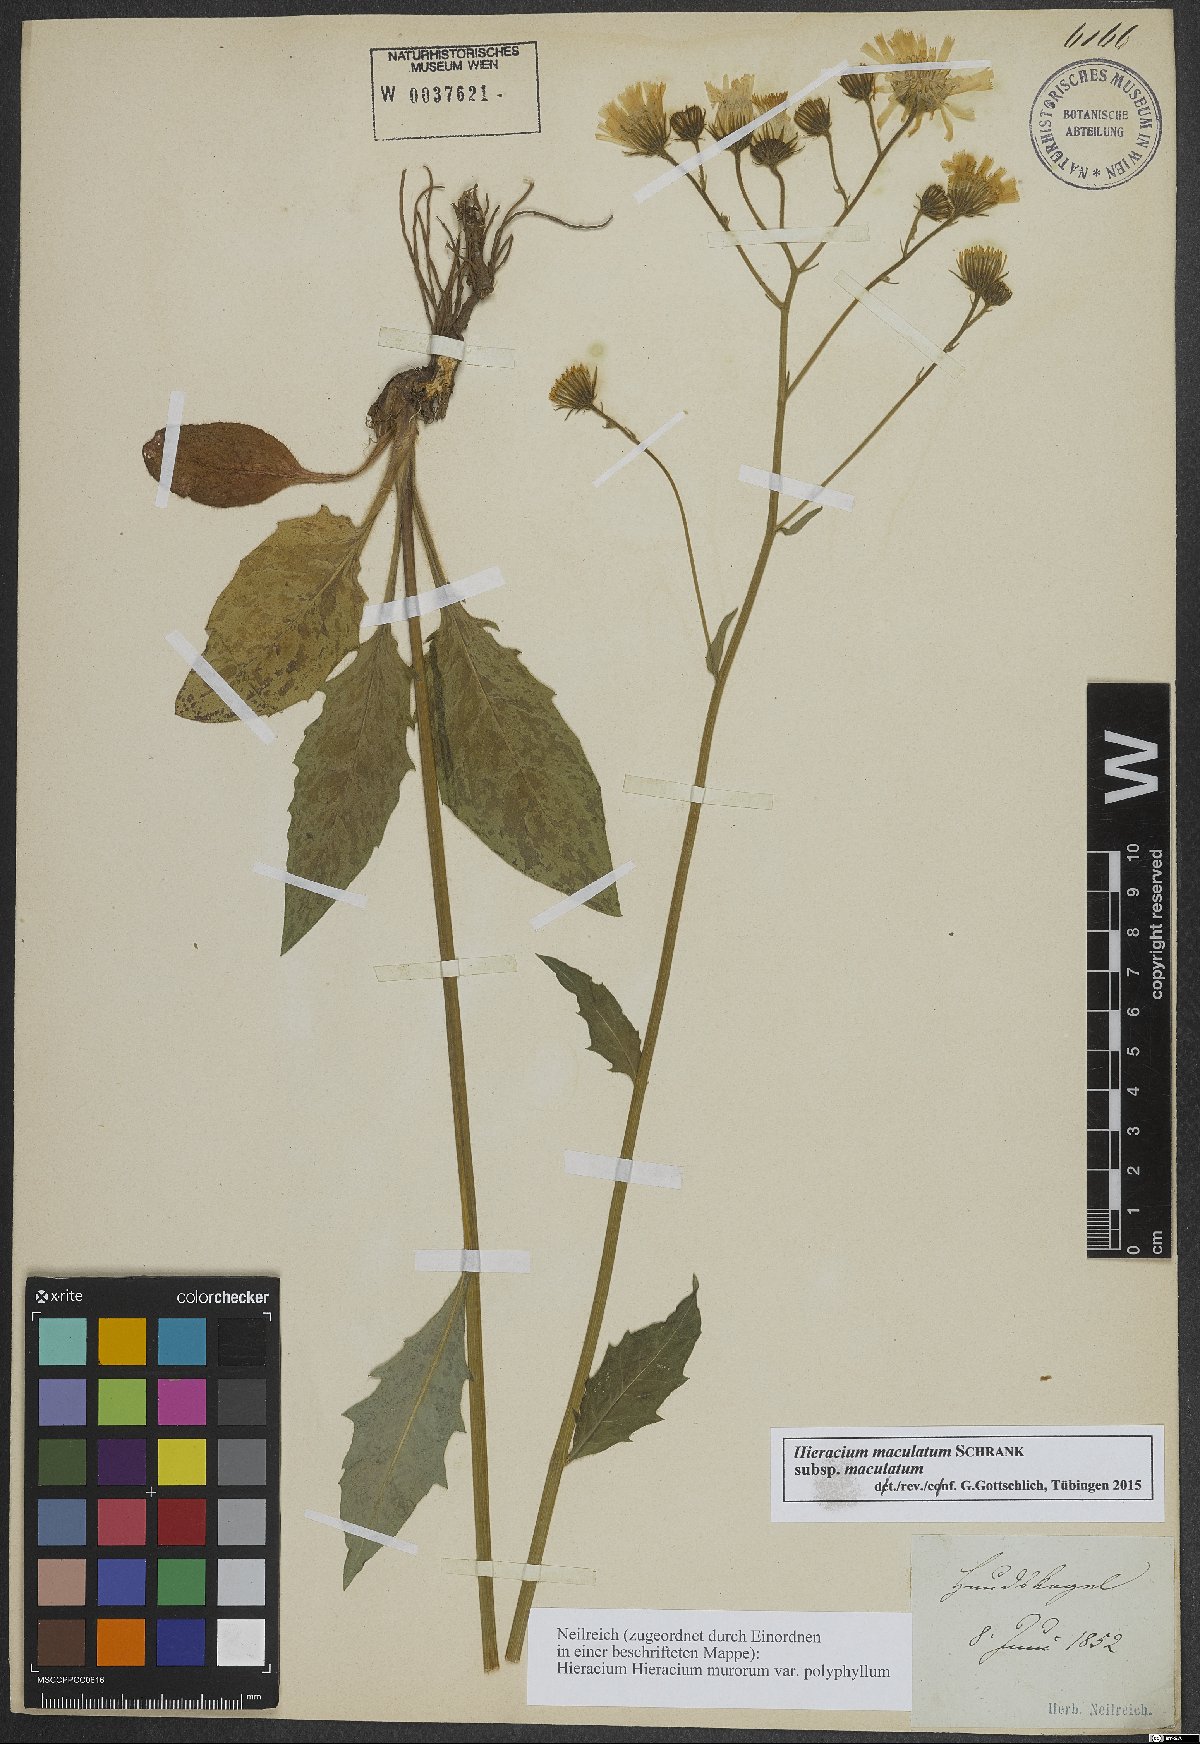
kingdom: Plantae
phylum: Tracheophyta
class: Magnoliopsida
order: Asterales
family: Asteraceae
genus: Hieracium
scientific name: Hieracium maculatum
